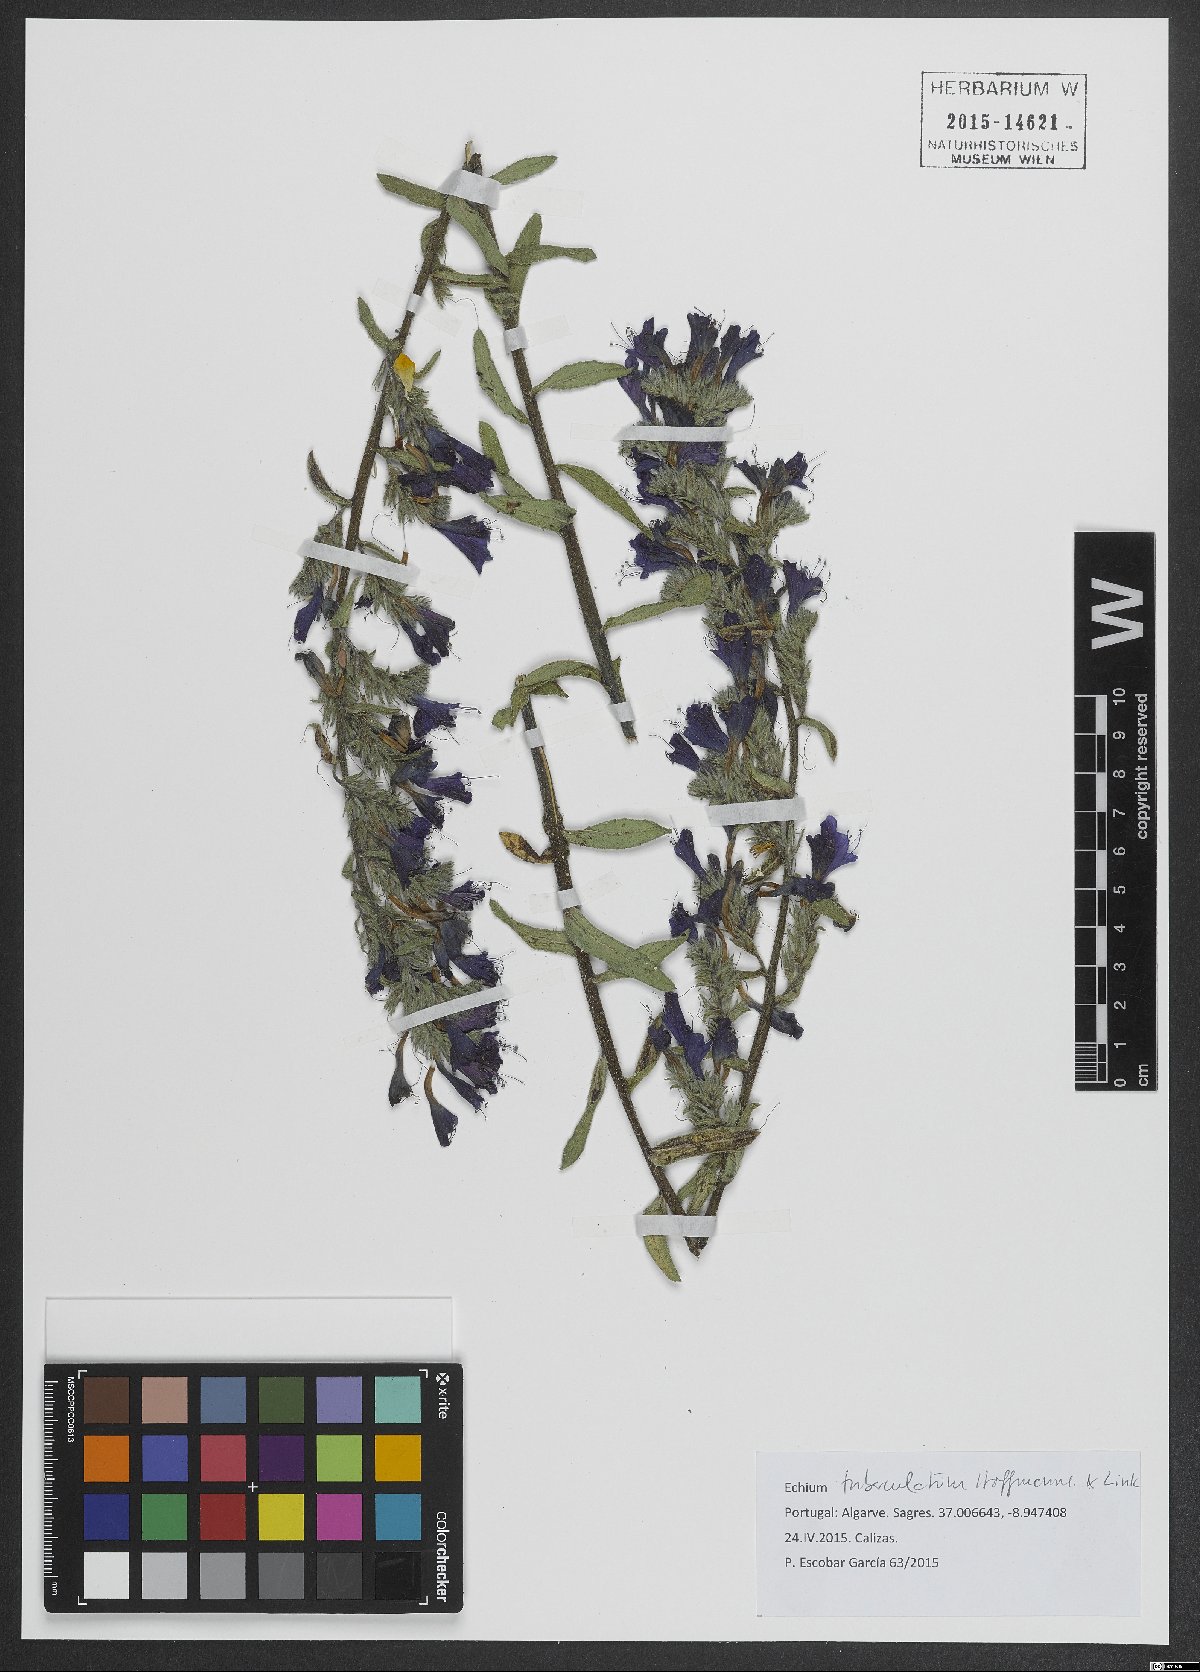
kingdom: Plantae
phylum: Tracheophyta
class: Magnoliopsida
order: Boraginales
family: Boraginaceae
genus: Echium
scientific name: Echium tuberculatum
